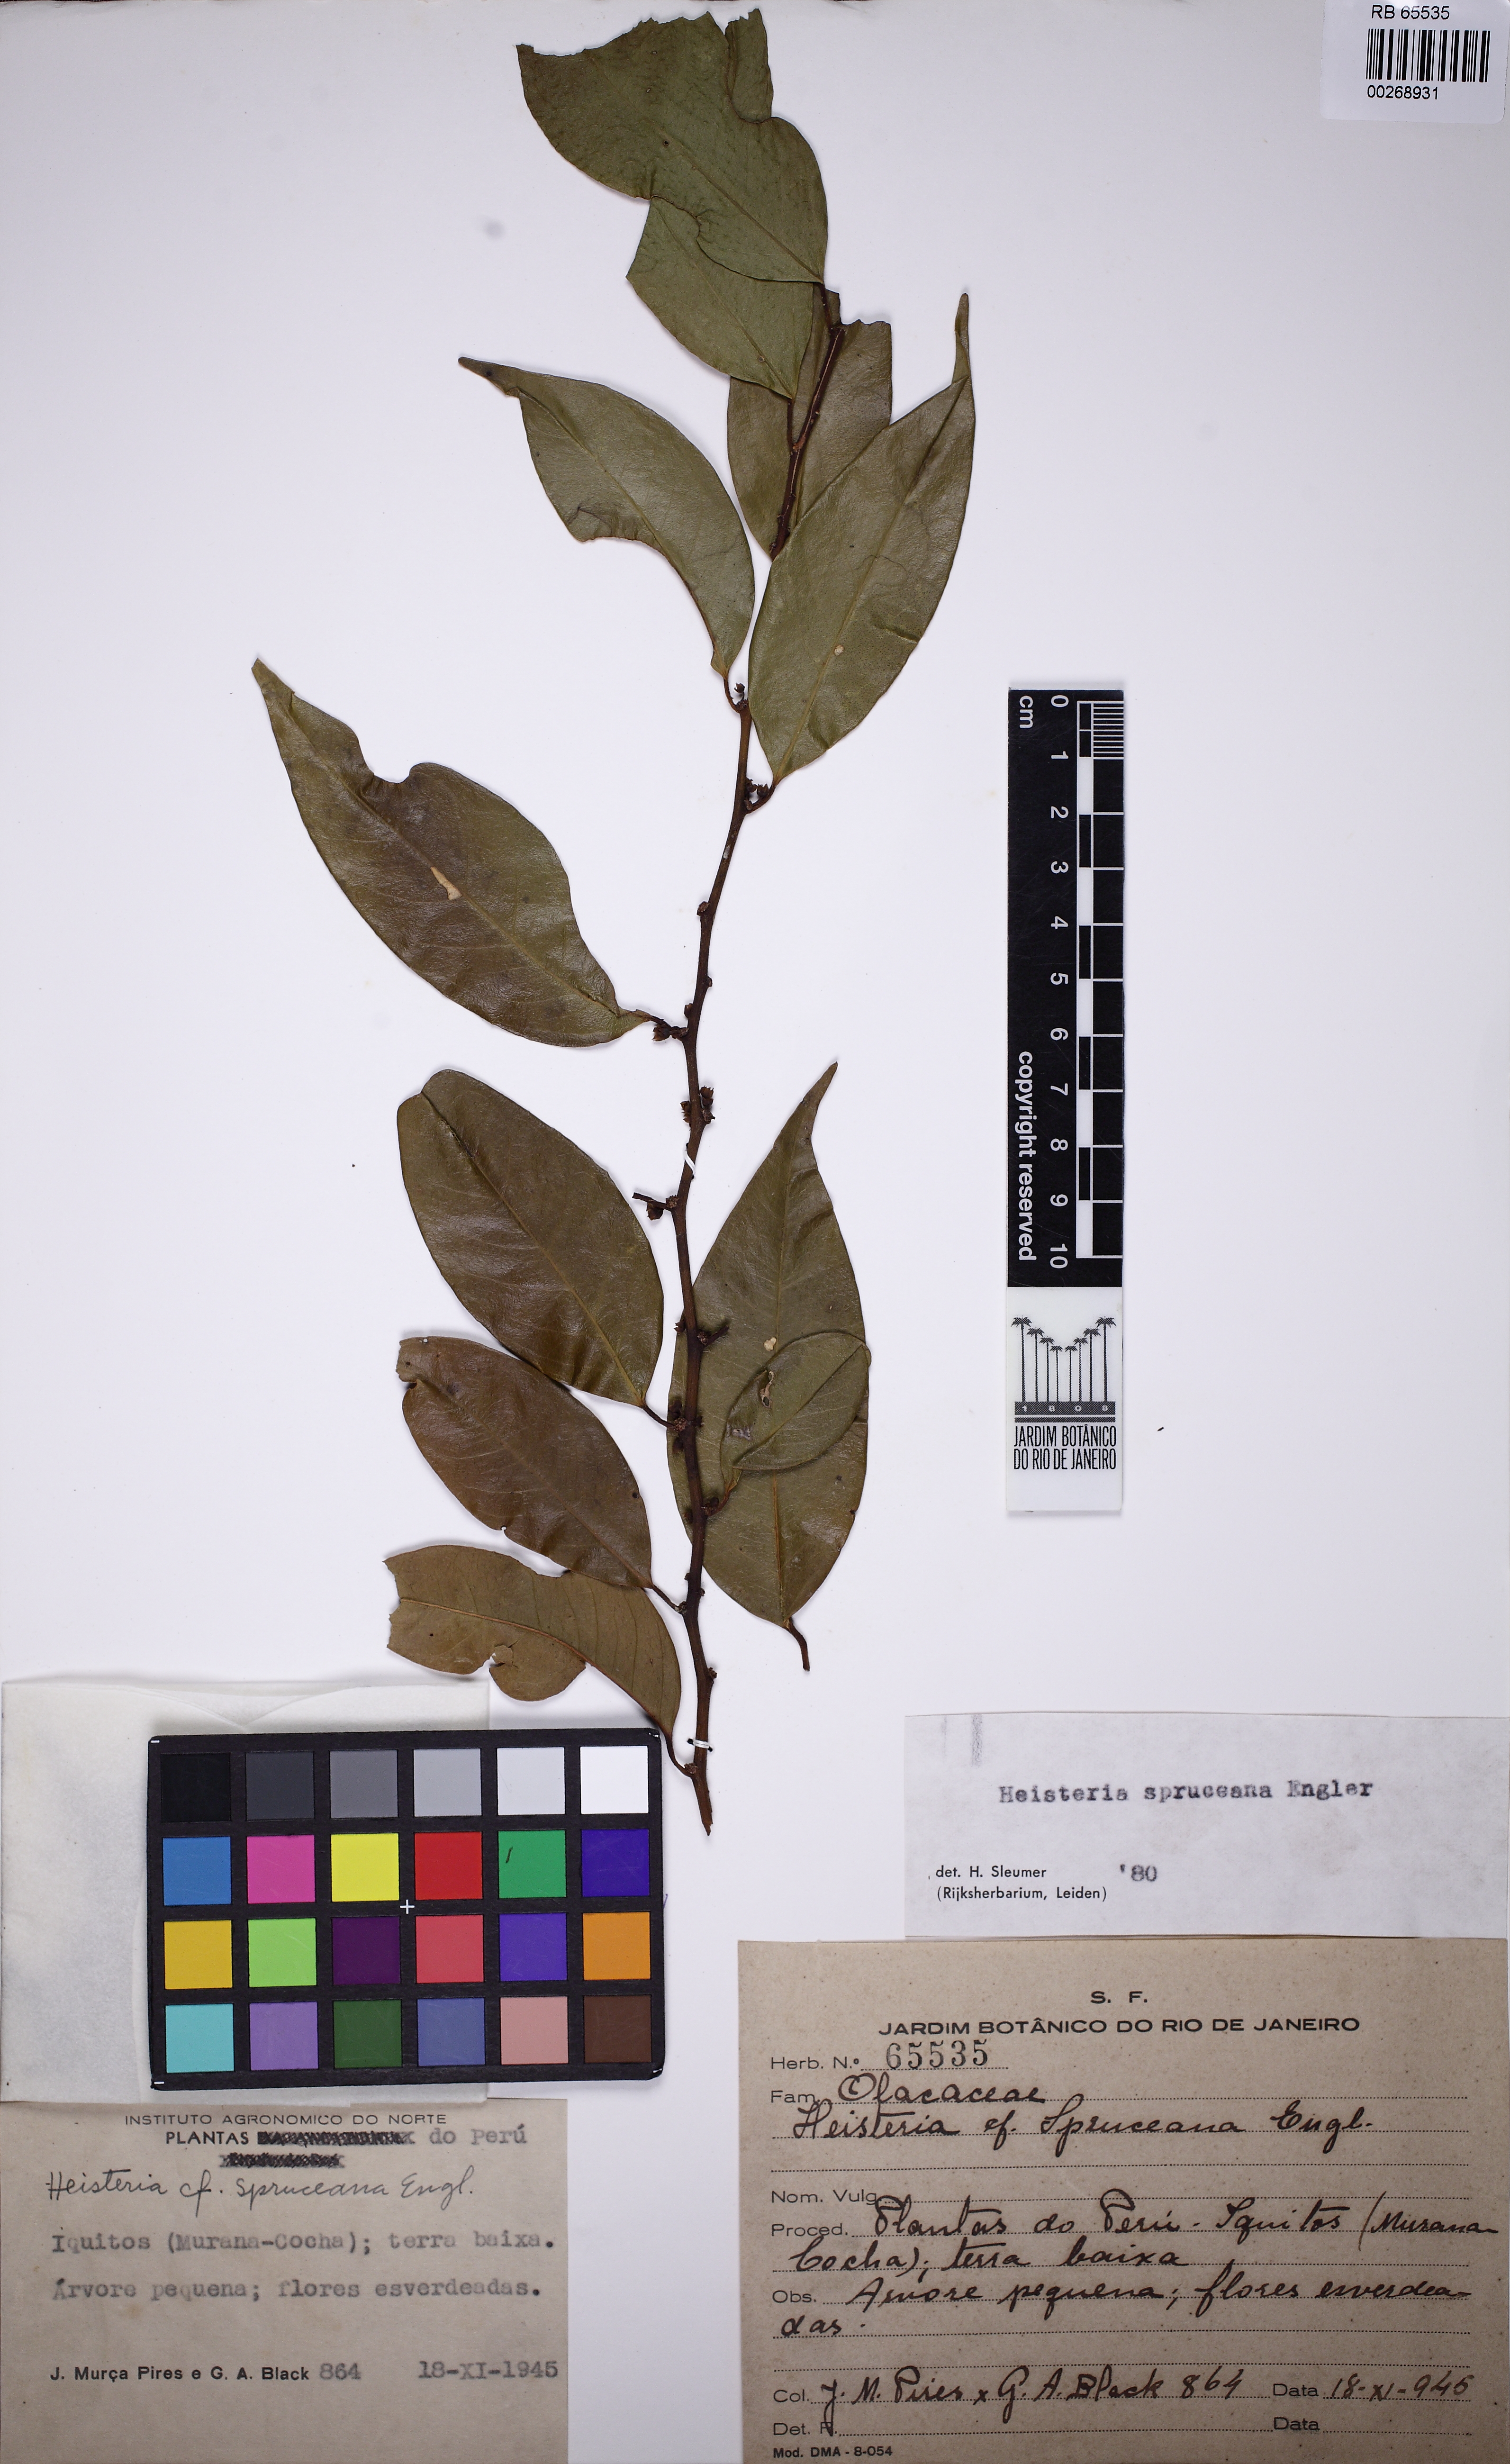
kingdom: Plantae
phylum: Tracheophyta
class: Magnoliopsida
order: Santalales
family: Erythropalaceae
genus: Heisteria
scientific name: Heisteria spruceana
